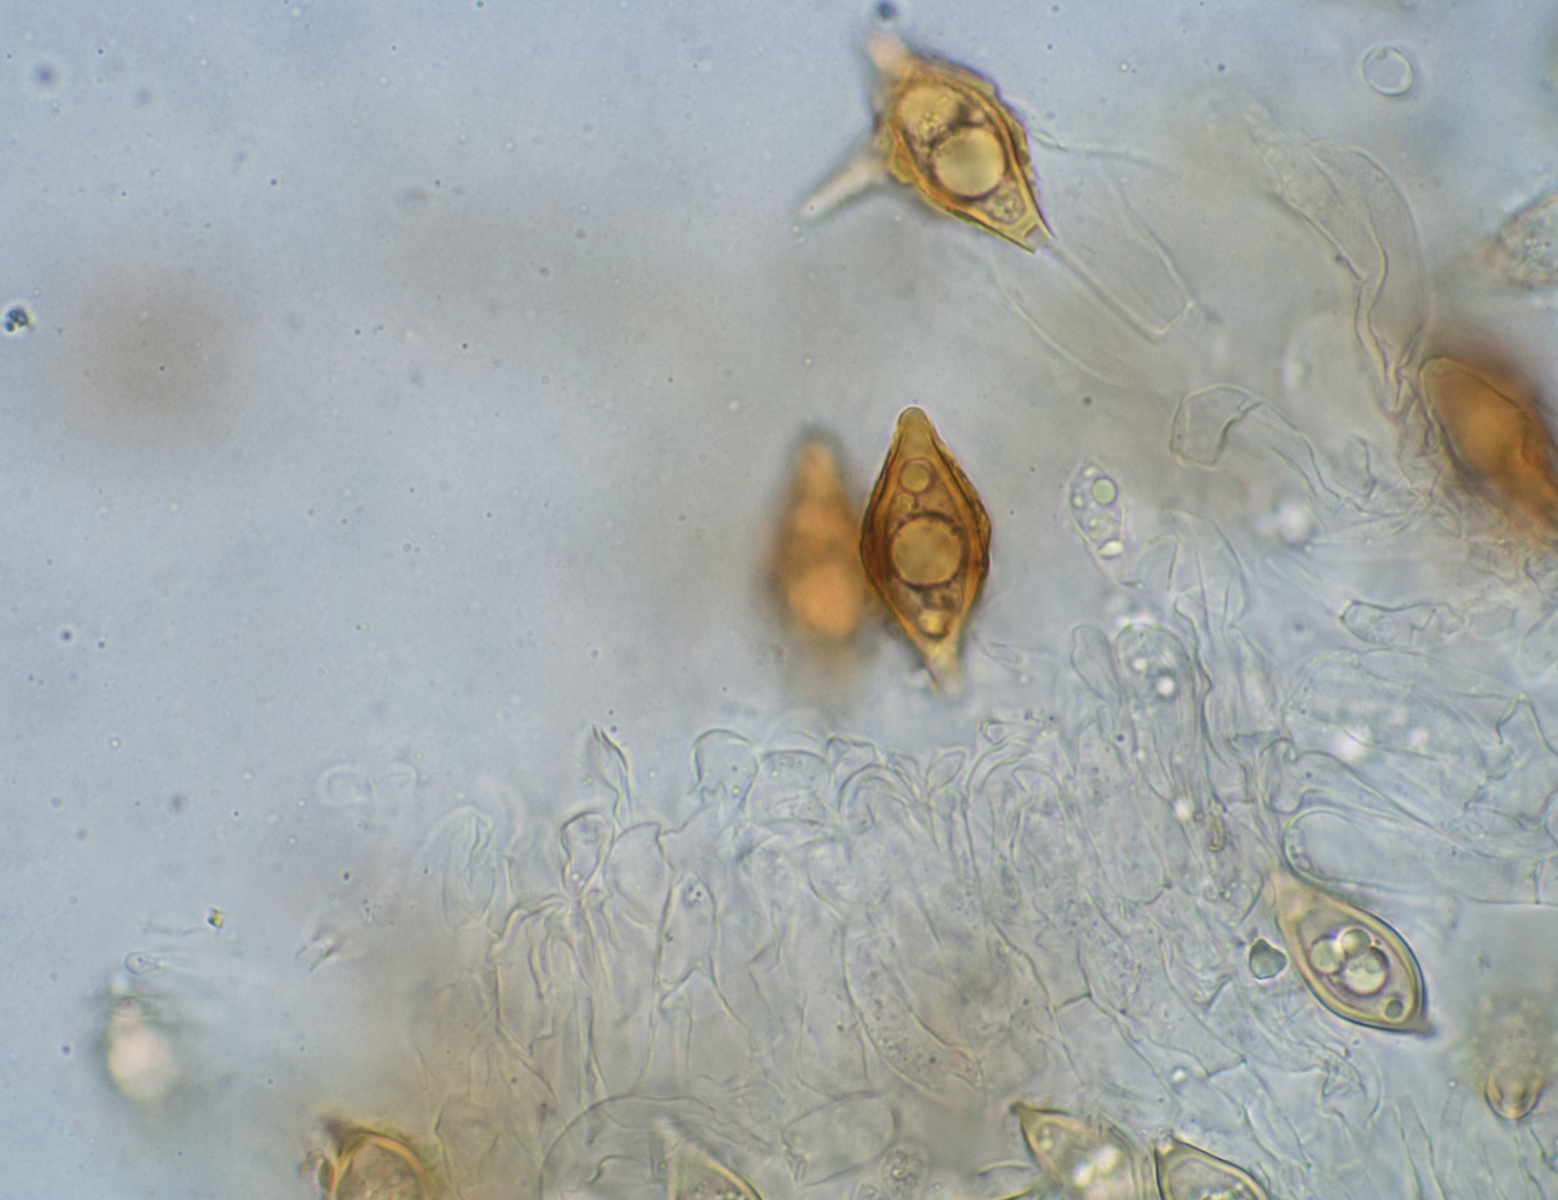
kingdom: Fungi
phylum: Basidiomycota
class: Agaricomycetes
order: Agaricales
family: Hymenogastraceae
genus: Hymenogaster
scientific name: Hymenogaster
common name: knoldtrøffel
